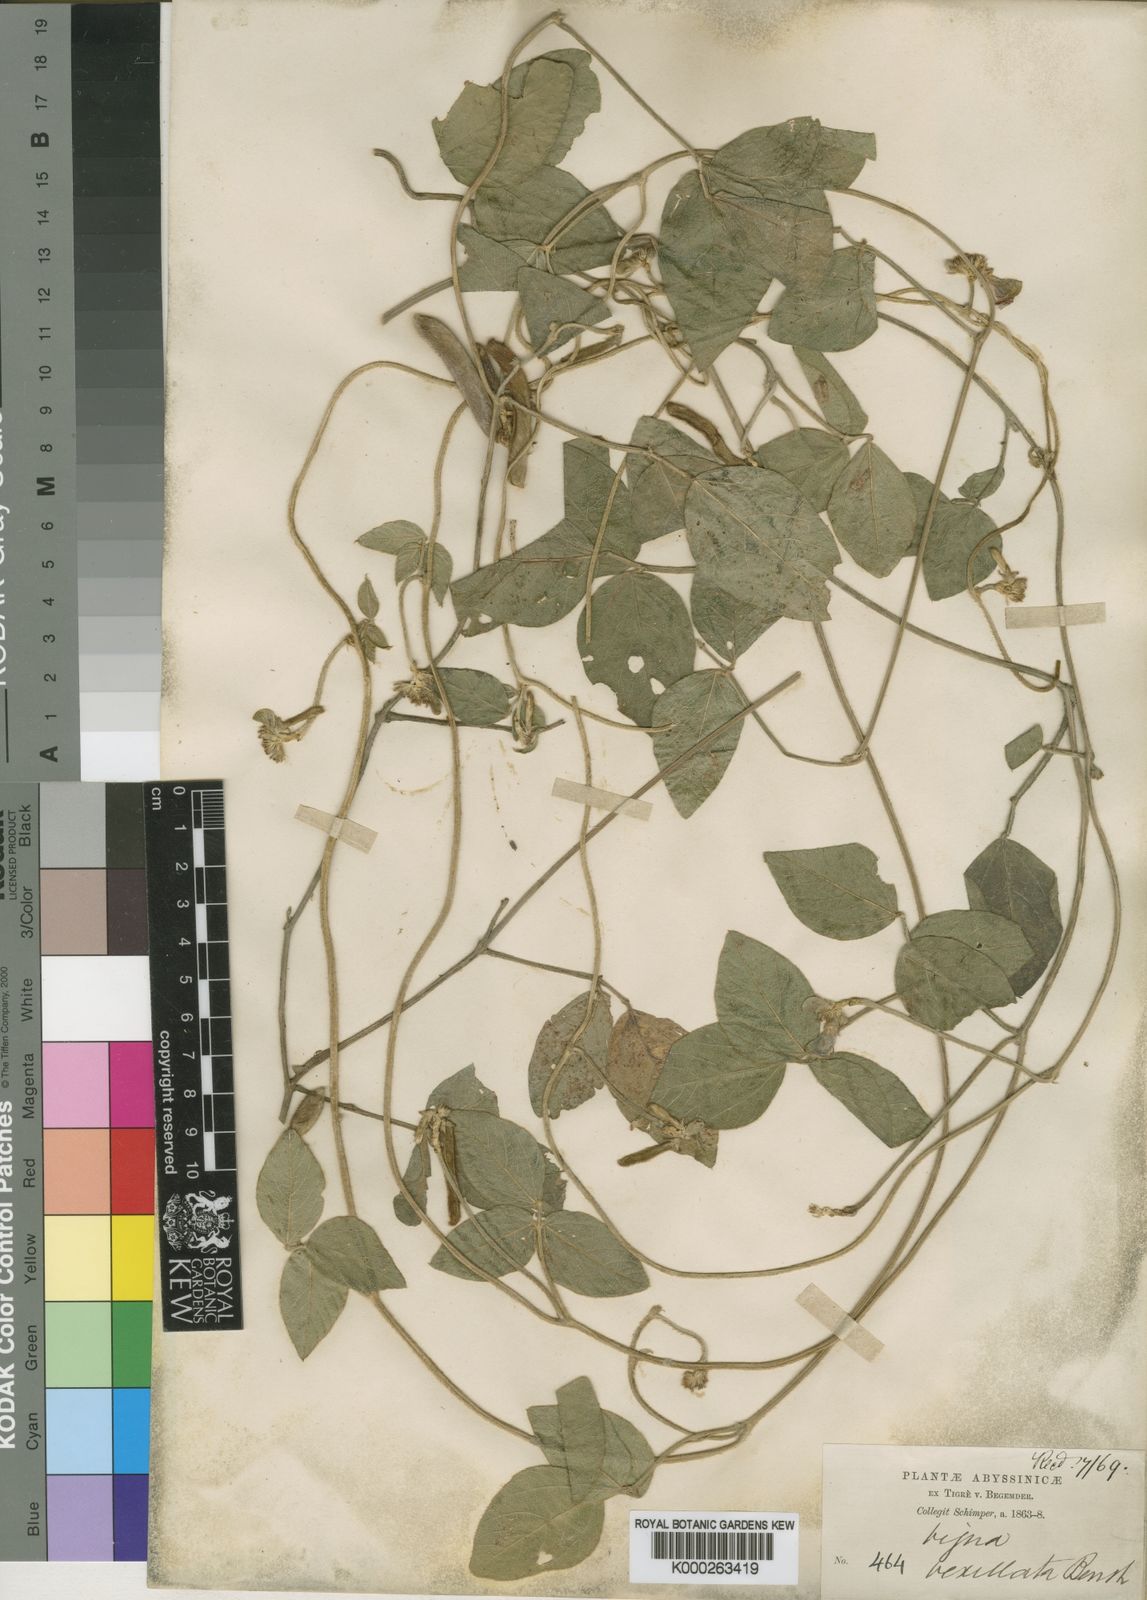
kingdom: Plantae
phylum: Tracheophyta
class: Magnoliopsida
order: Fabales
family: Fabaceae
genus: Vigna
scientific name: Vigna heterophylla
